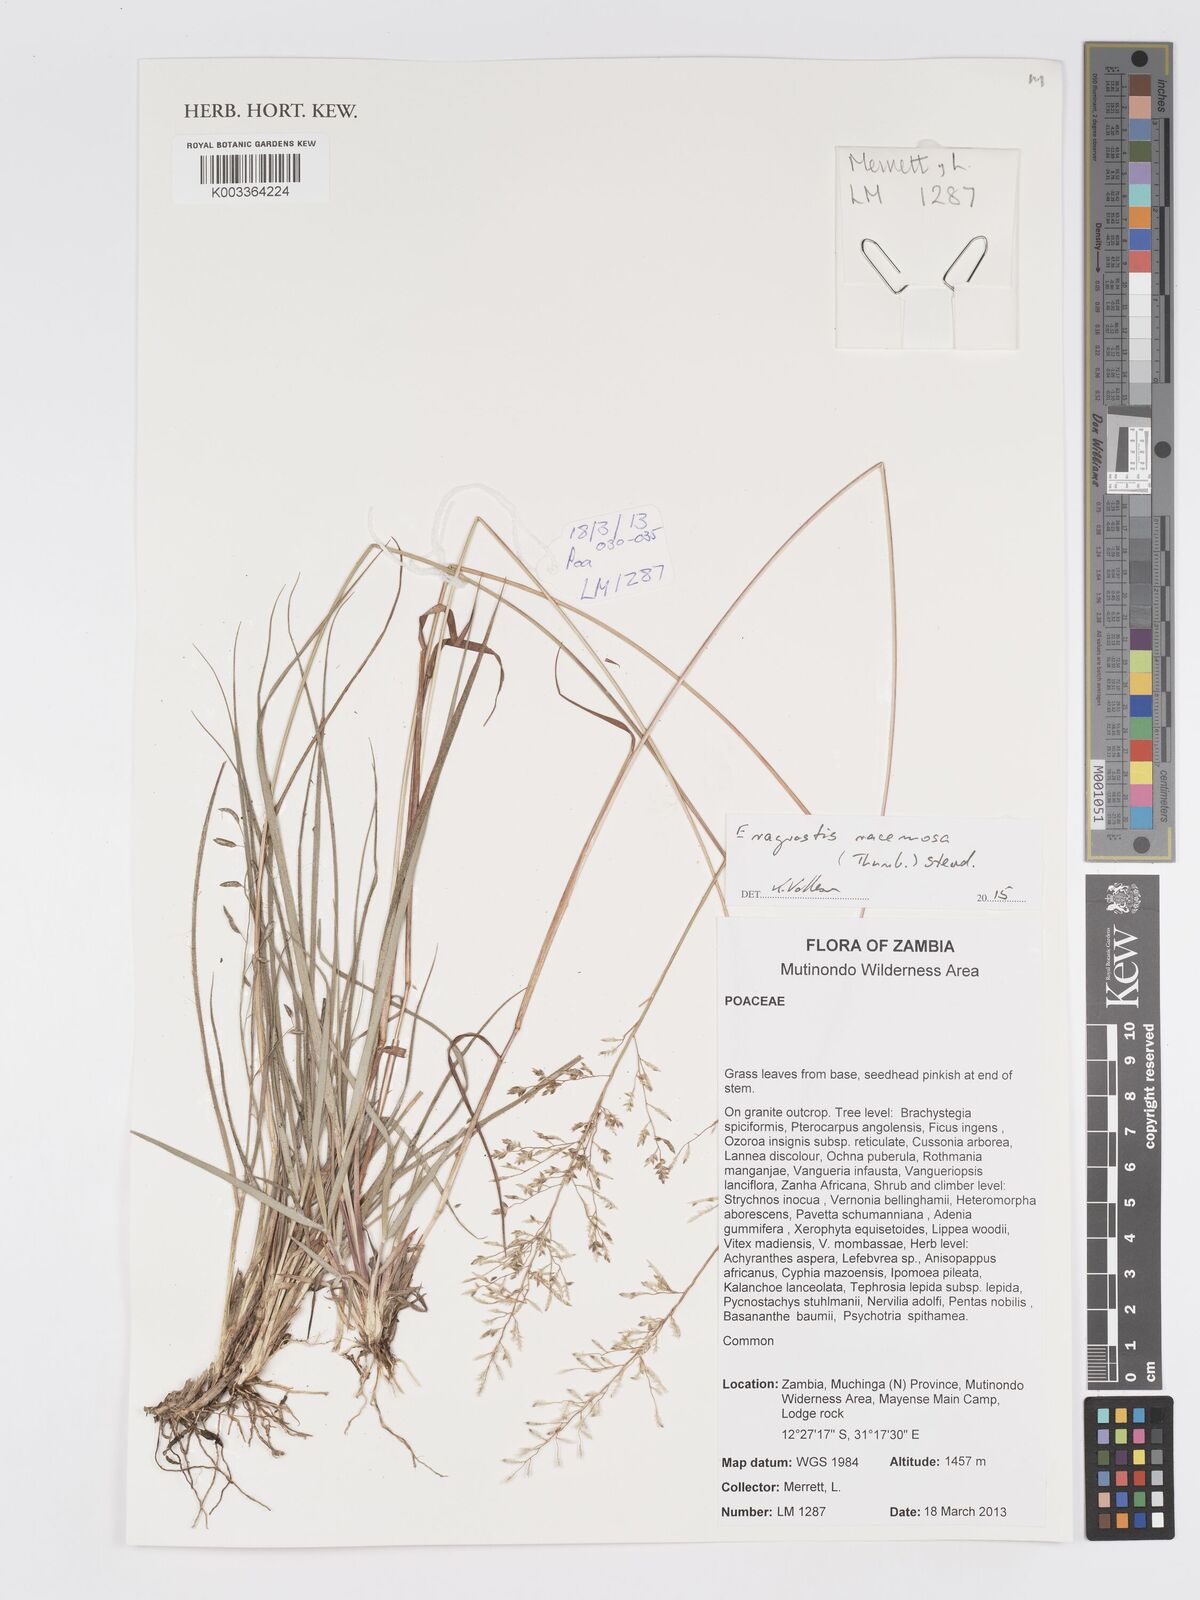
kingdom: Plantae
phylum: Tracheophyta
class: Liliopsida
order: Poales
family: Poaceae
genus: Eragrostis
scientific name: Eragrostis racemosa
